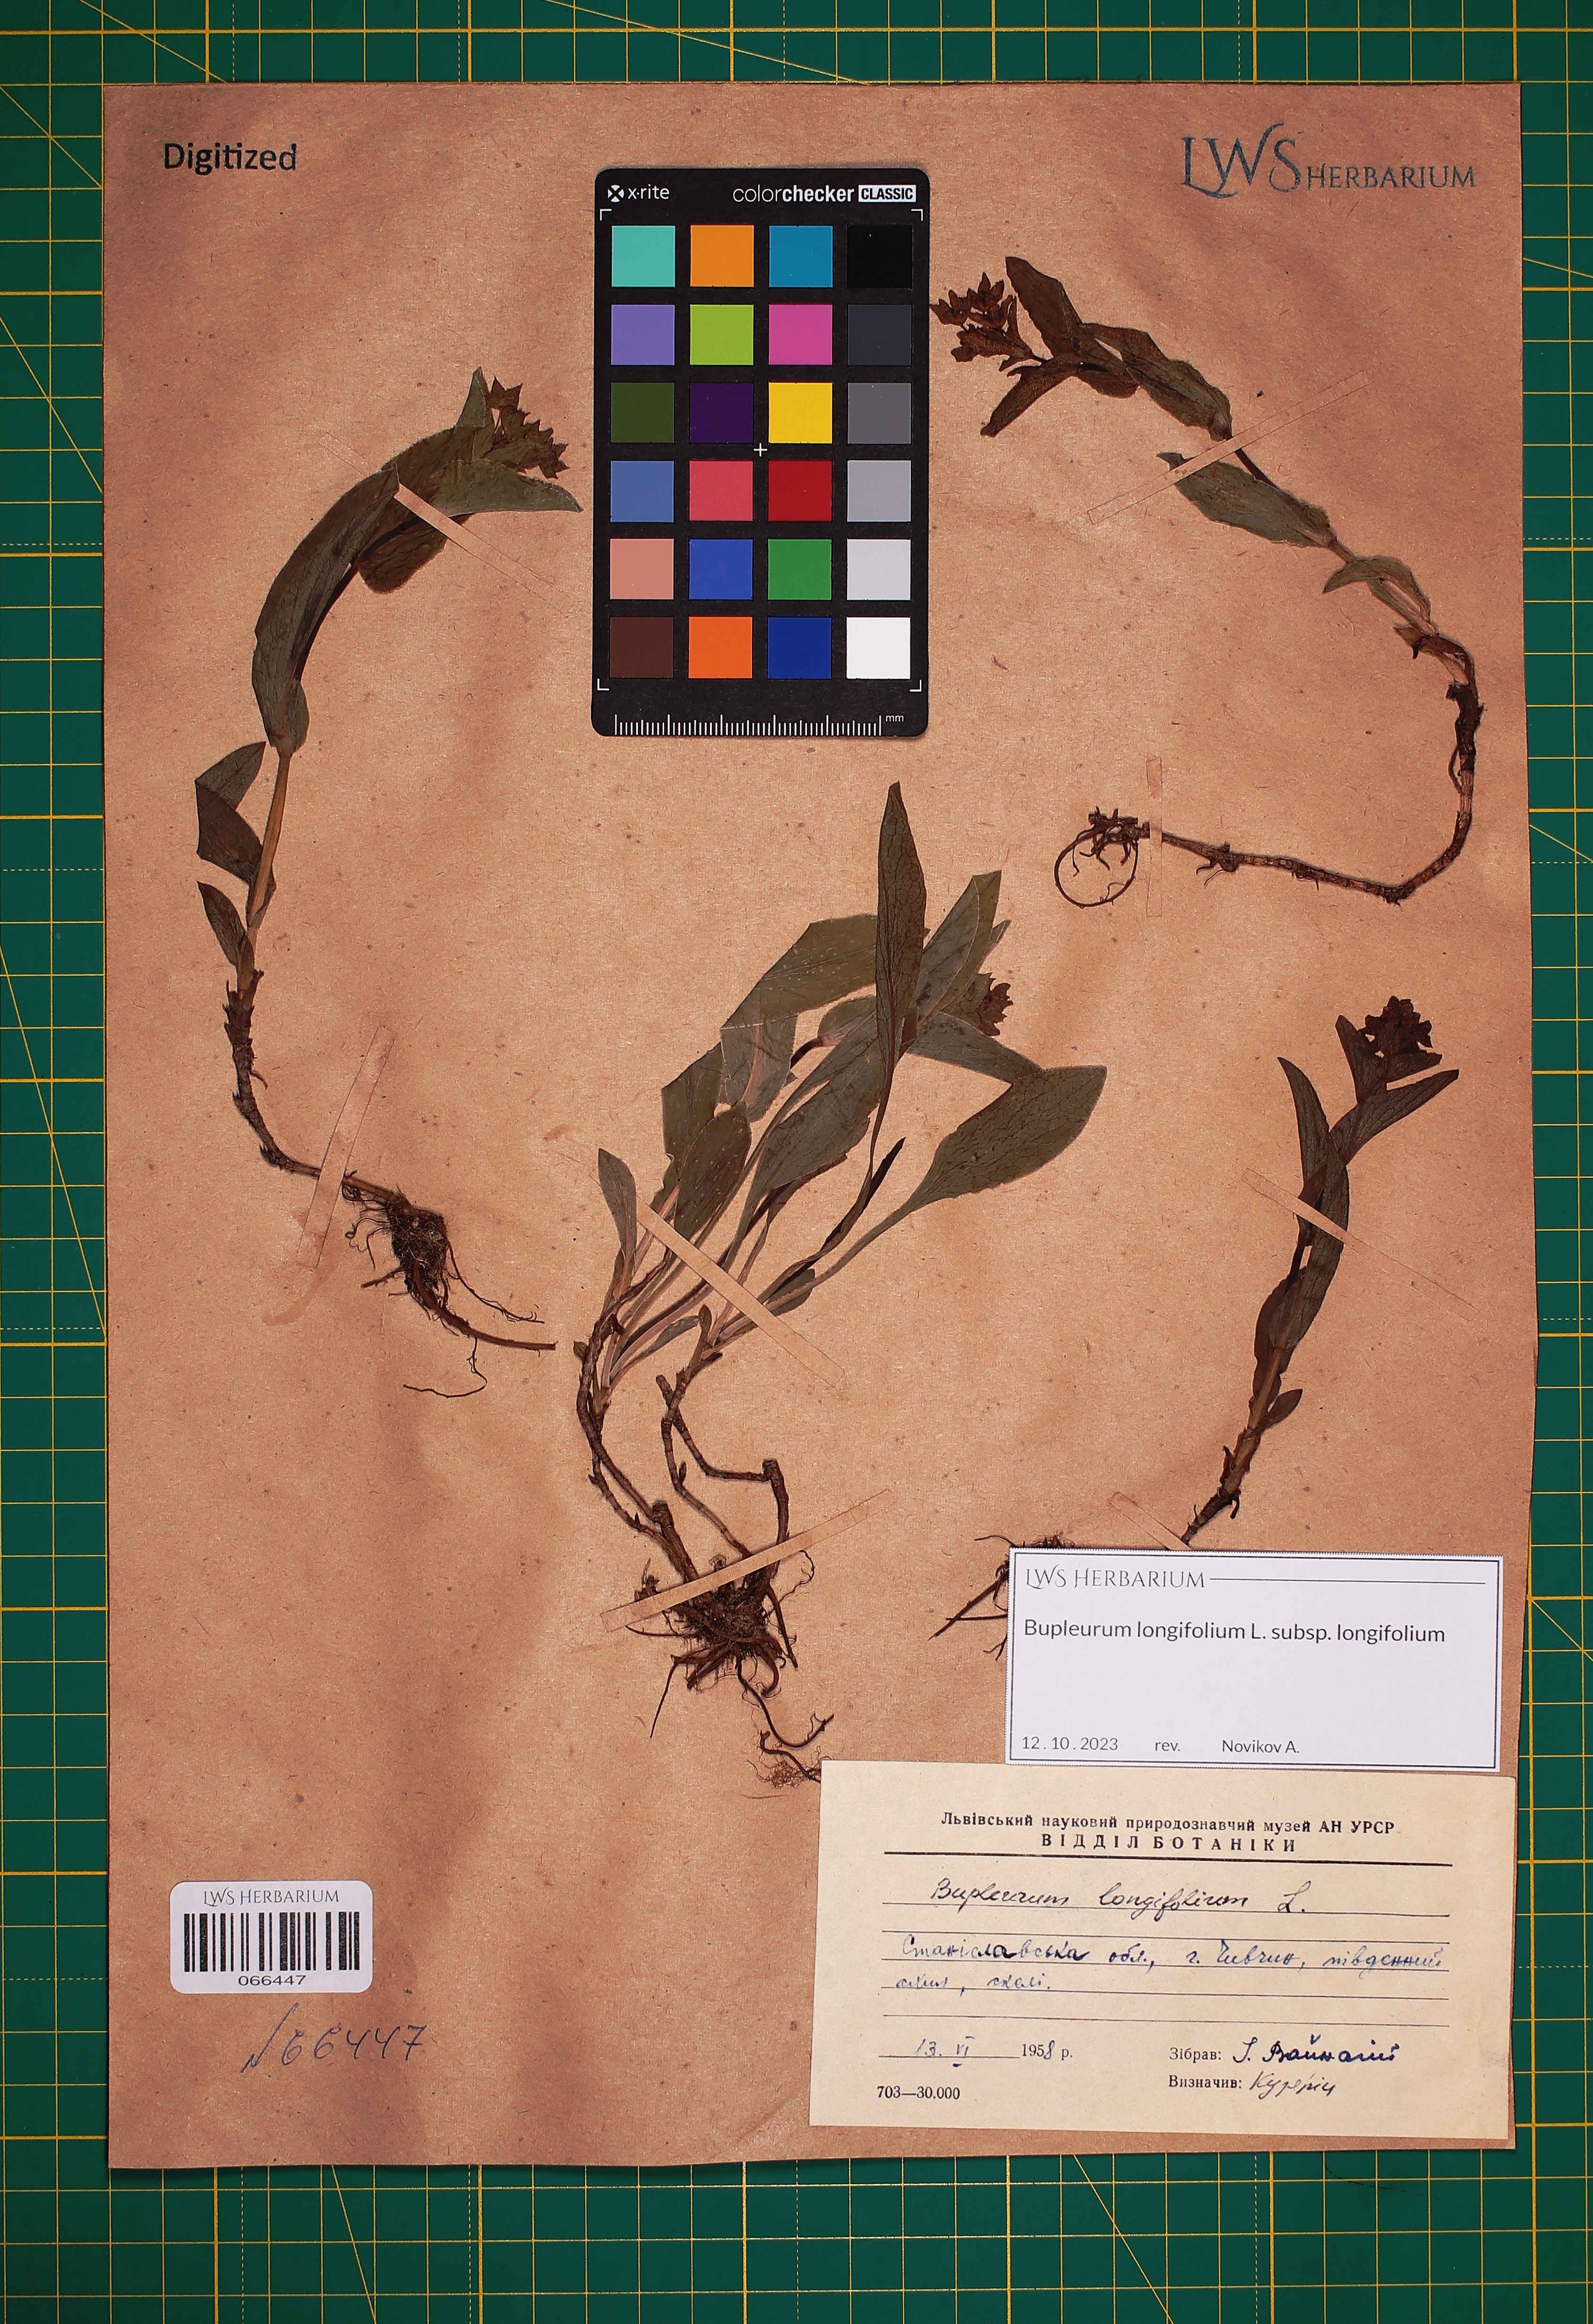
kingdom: Plantae
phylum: Tracheophyta
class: Magnoliopsida
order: Apiales
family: Apiaceae
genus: Bupleurum
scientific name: Bupleurum longifolium
